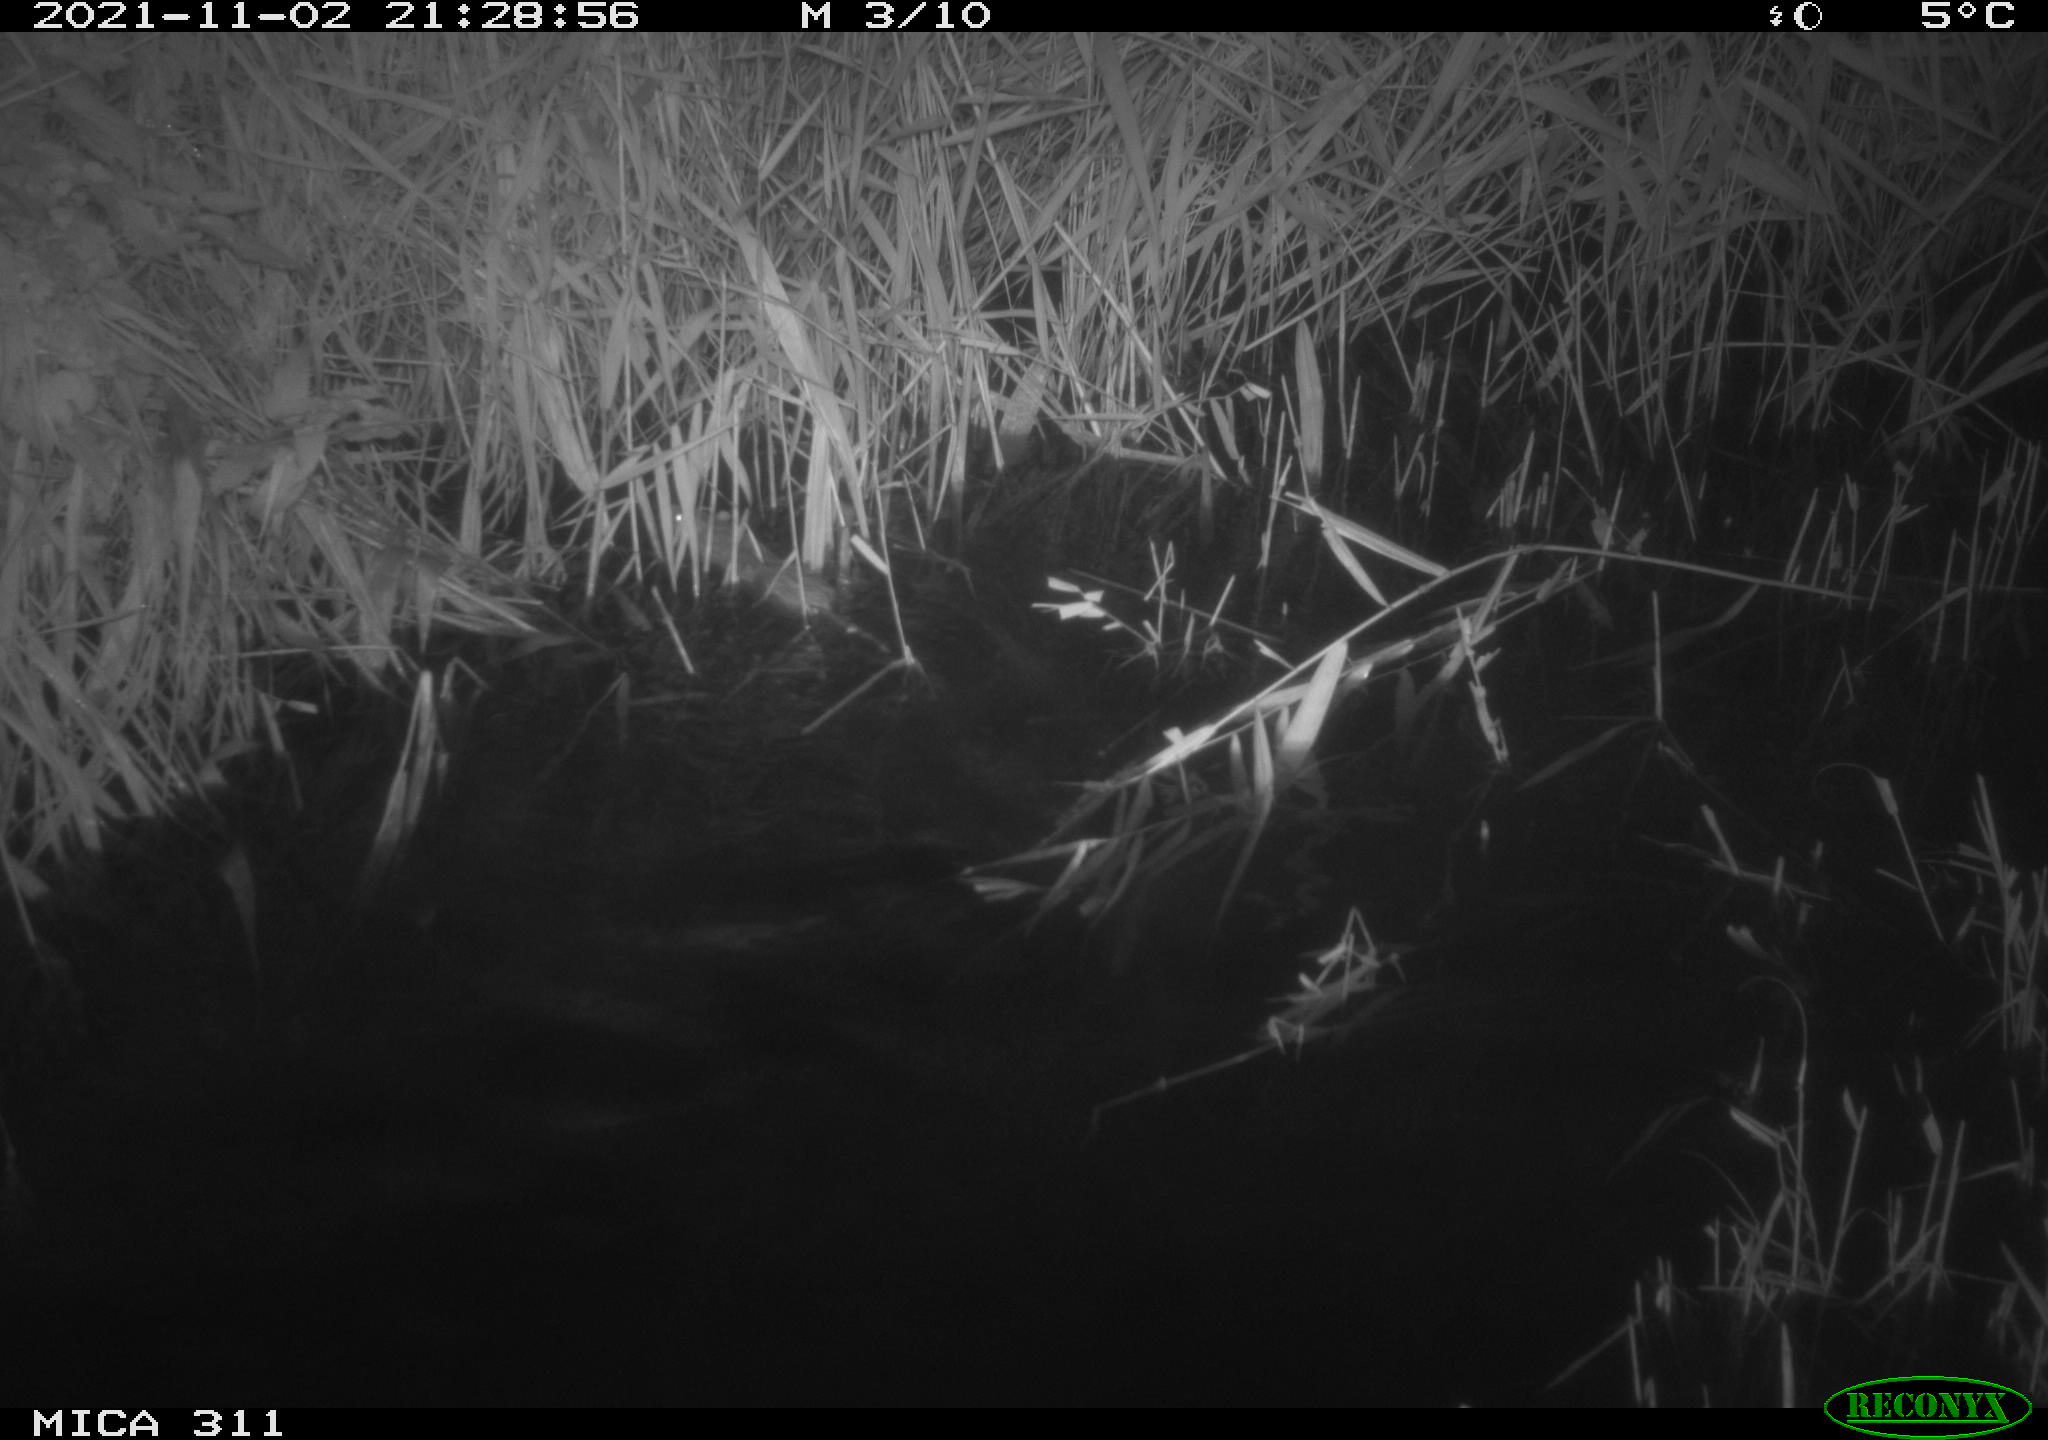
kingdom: Animalia
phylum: Chordata
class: Mammalia
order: Rodentia
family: Muridae
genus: Rattus
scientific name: Rattus norvegicus
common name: Brown rat
